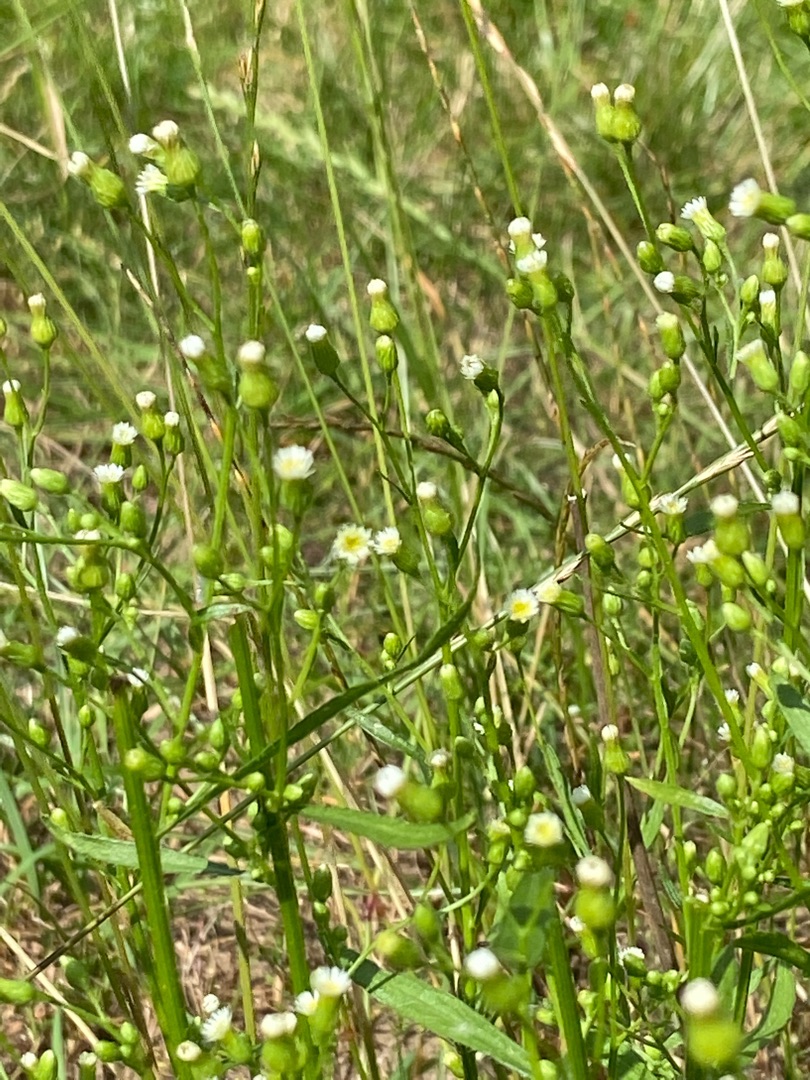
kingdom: Plantae
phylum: Tracheophyta
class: Magnoliopsida
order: Asterales
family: Asteraceae
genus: Erigeron
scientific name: Erigeron canadensis
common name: Kanadisk bakkestjerne
